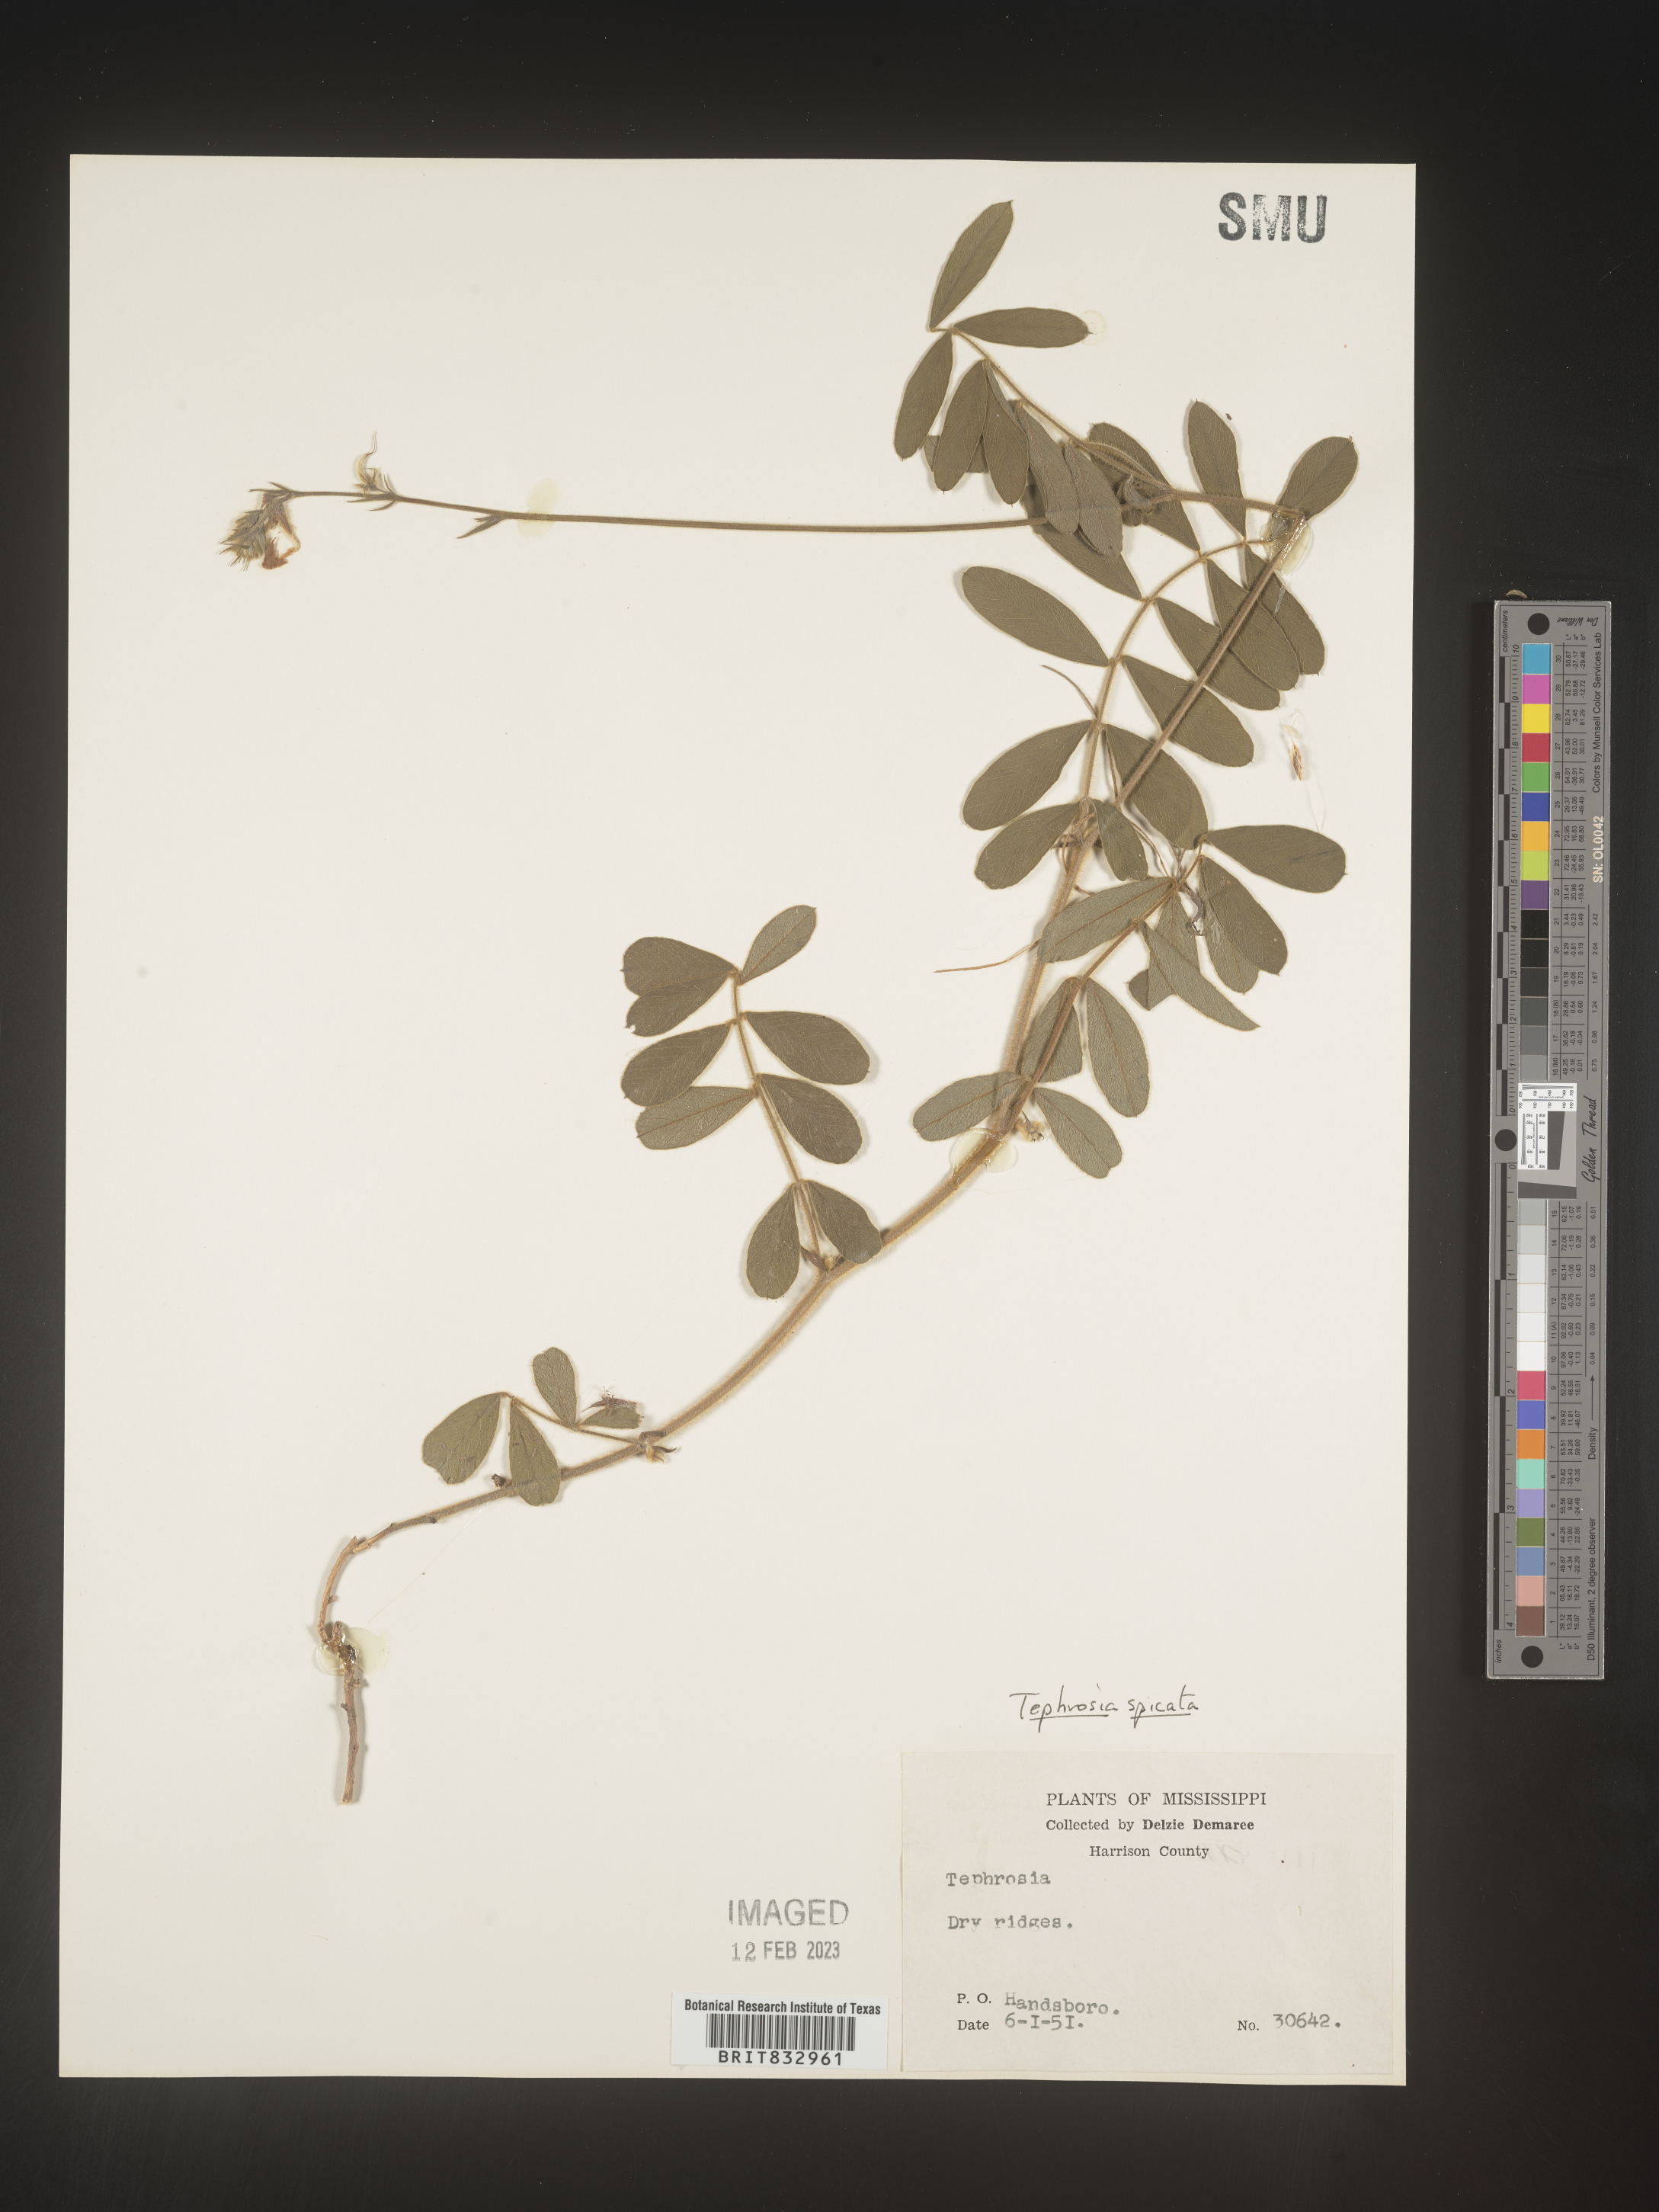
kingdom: Plantae
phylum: Tracheophyta
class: Magnoliopsida
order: Fabales
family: Fabaceae
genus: Tephrosia
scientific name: Tephrosia spicata
